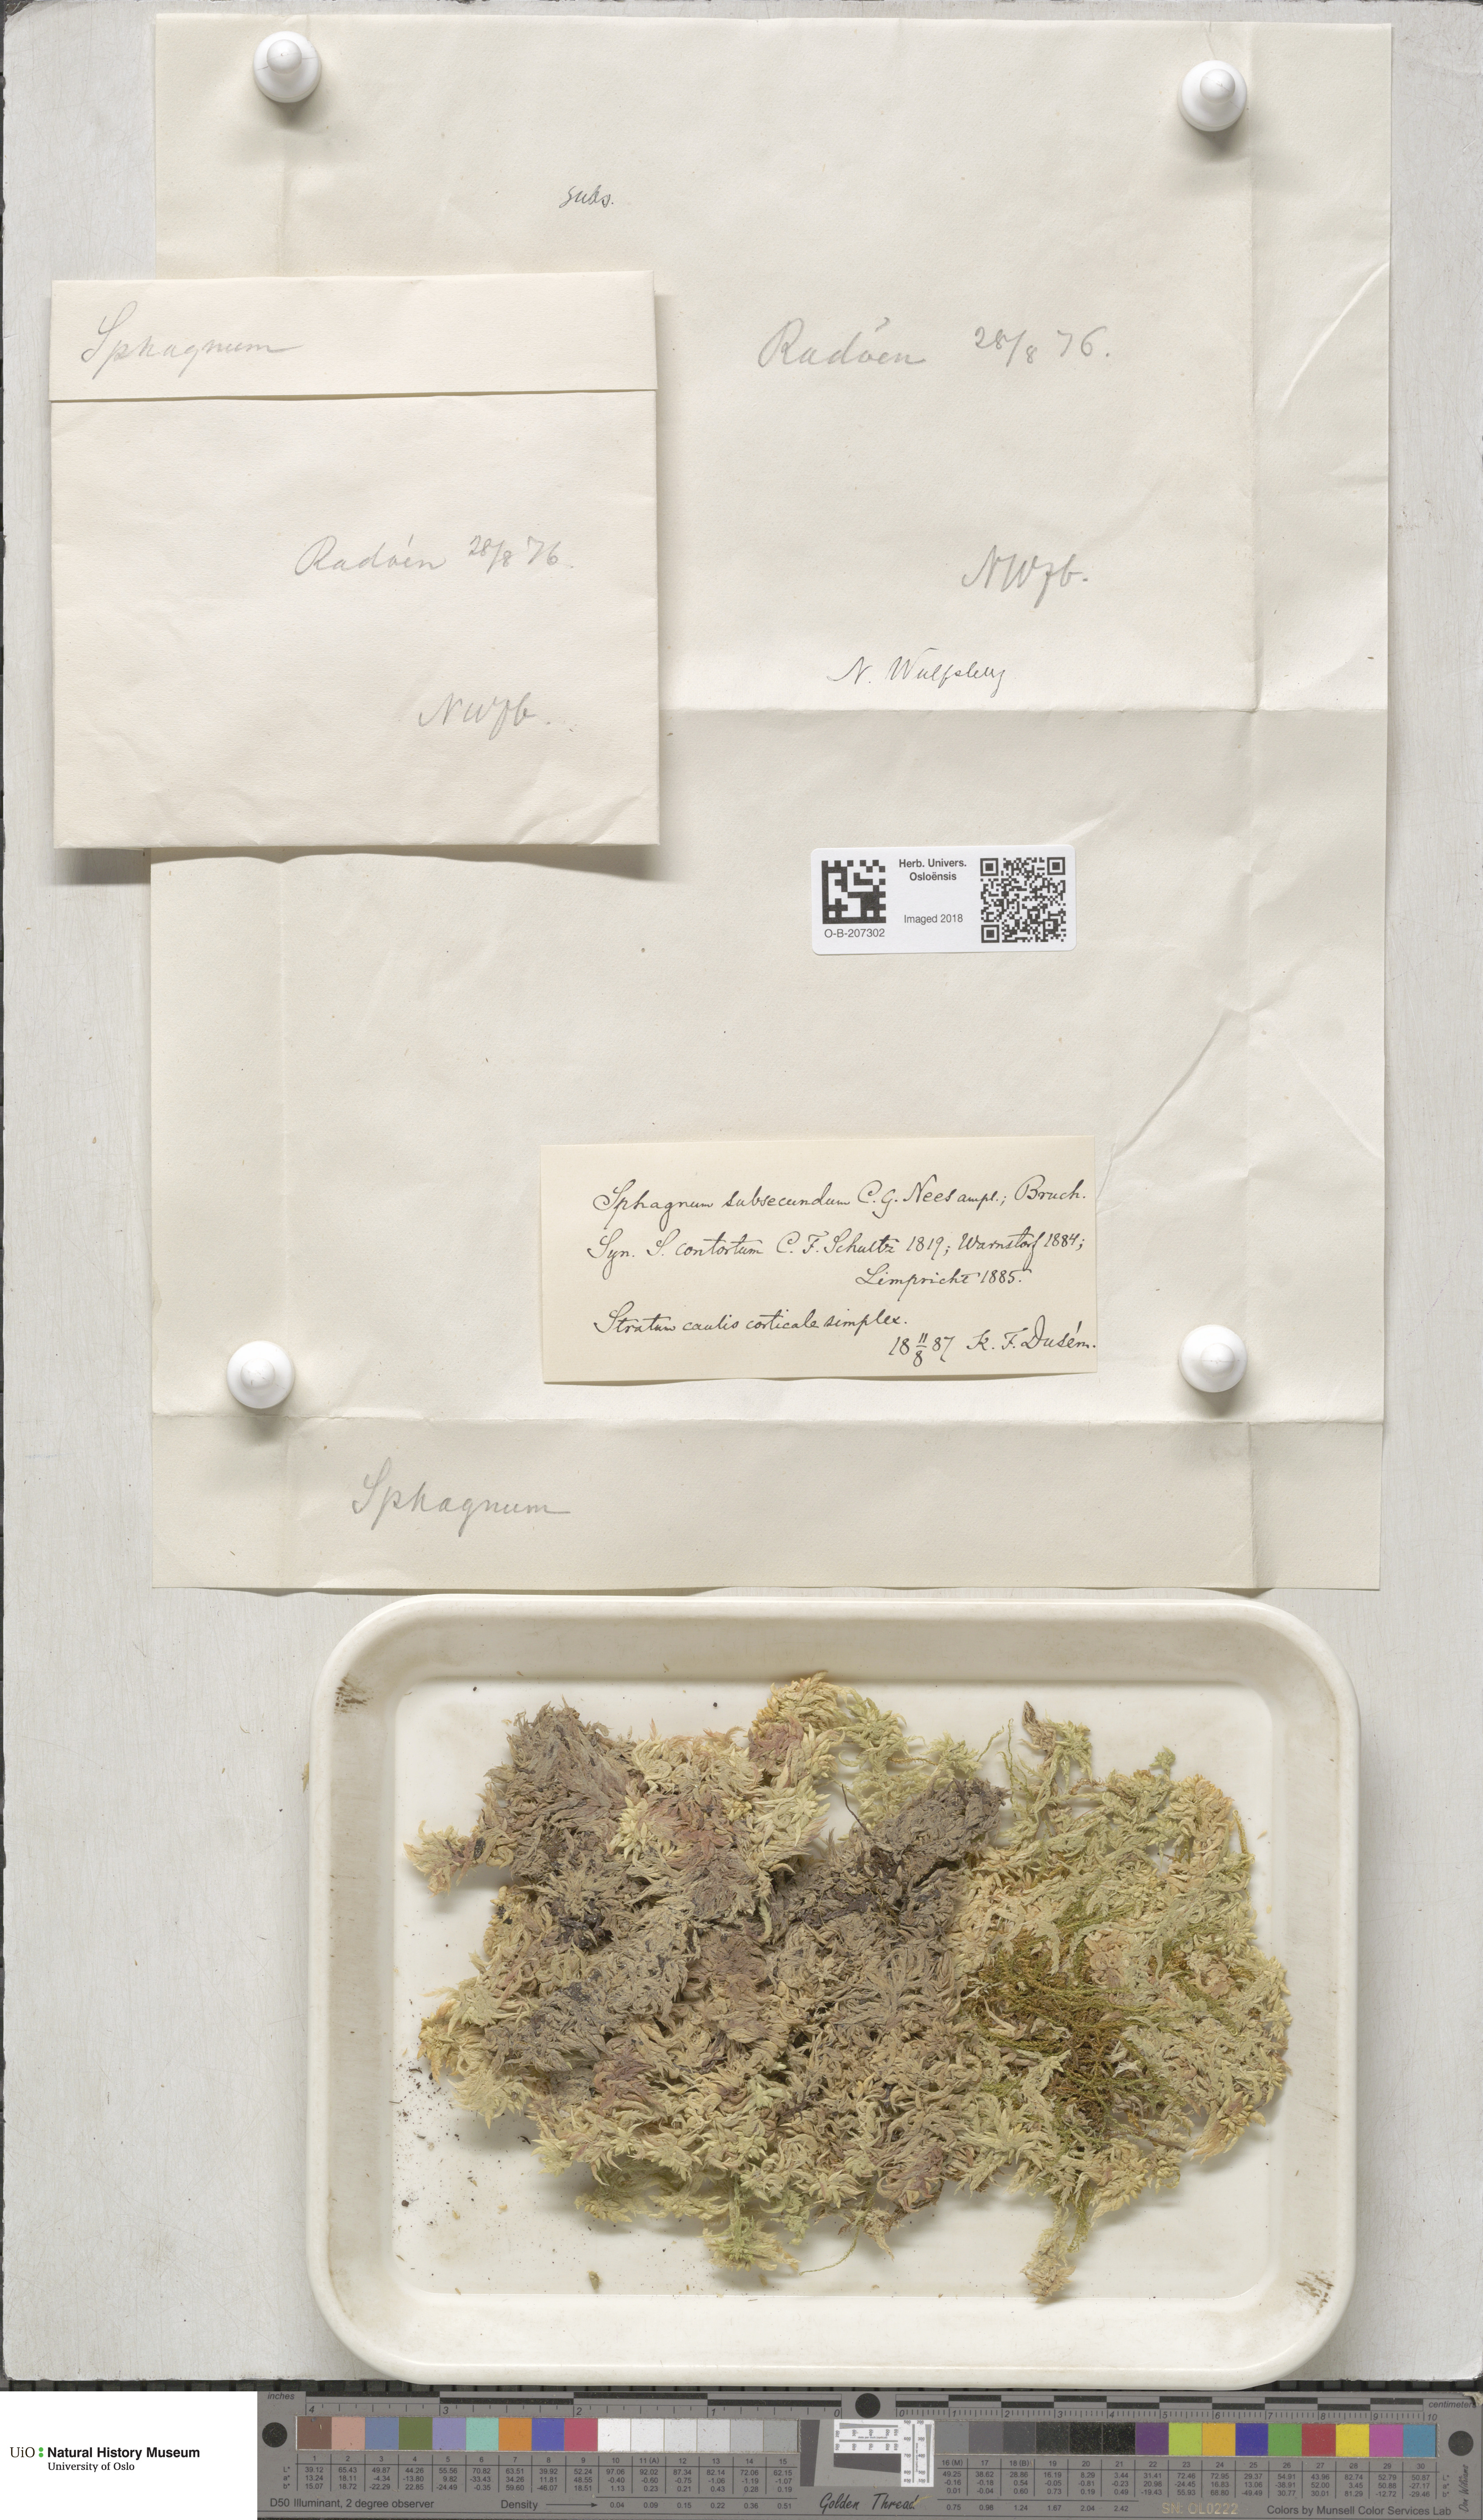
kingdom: Plantae
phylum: Bryophyta
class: Sphagnopsida
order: Sphagnales
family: Sphagnaceae
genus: Sphagnum
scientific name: Sphagnum subsecundum
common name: Orange peat moss
